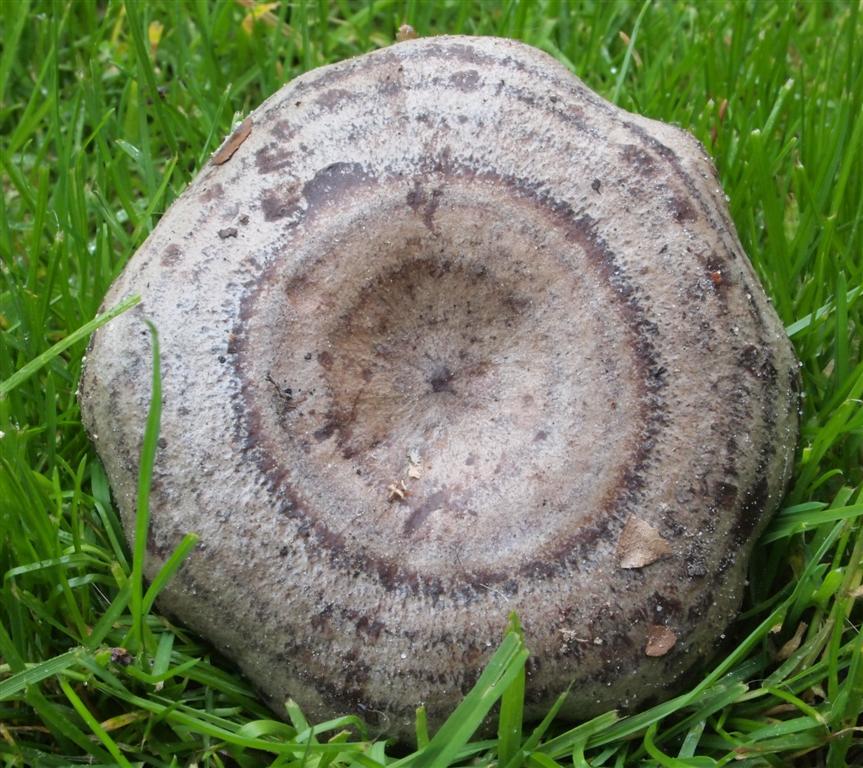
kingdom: Fungi
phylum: Basidiomycota
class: Agaricomycetes
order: Russulales
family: Russulaceae
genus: Lactarius
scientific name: Lactarius flexuosus
